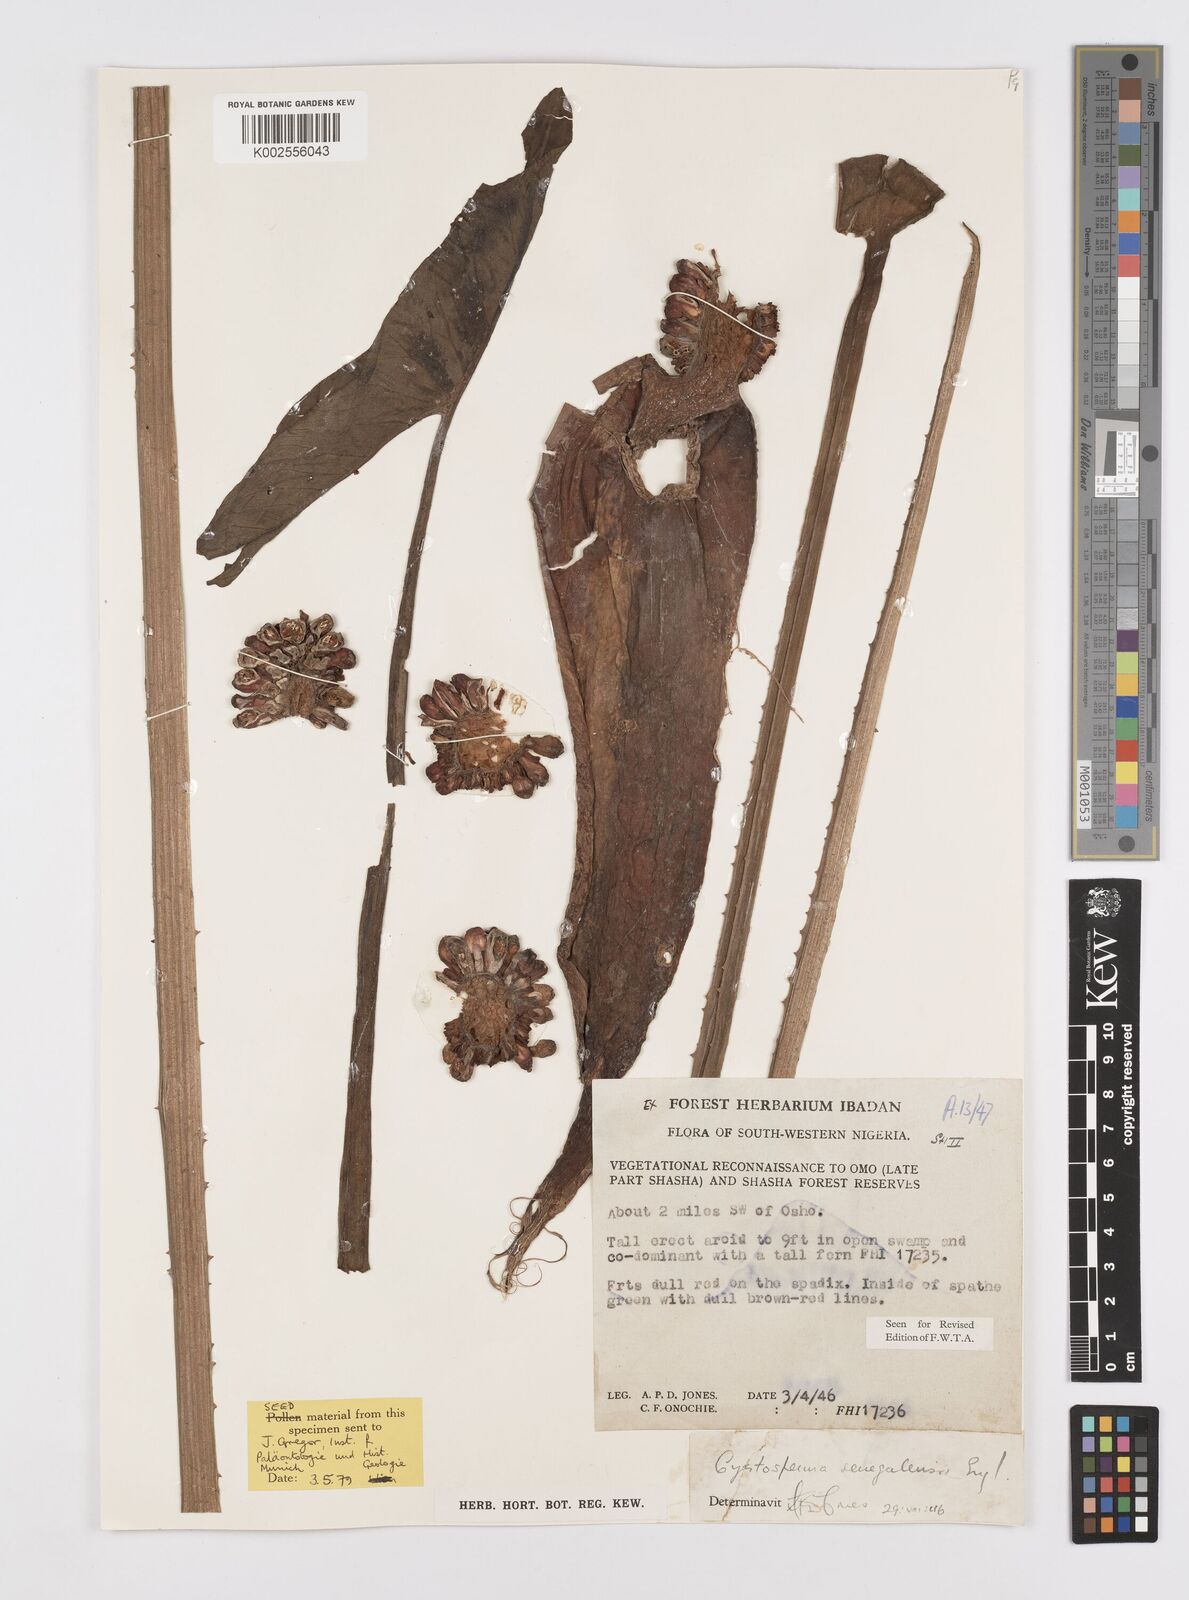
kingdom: Plantae
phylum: Tracheophyta
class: Liliopsida
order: Alismatales
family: Araceae
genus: Lasimorpha
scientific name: Lasimorpha senegalensis
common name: Swamp arum
